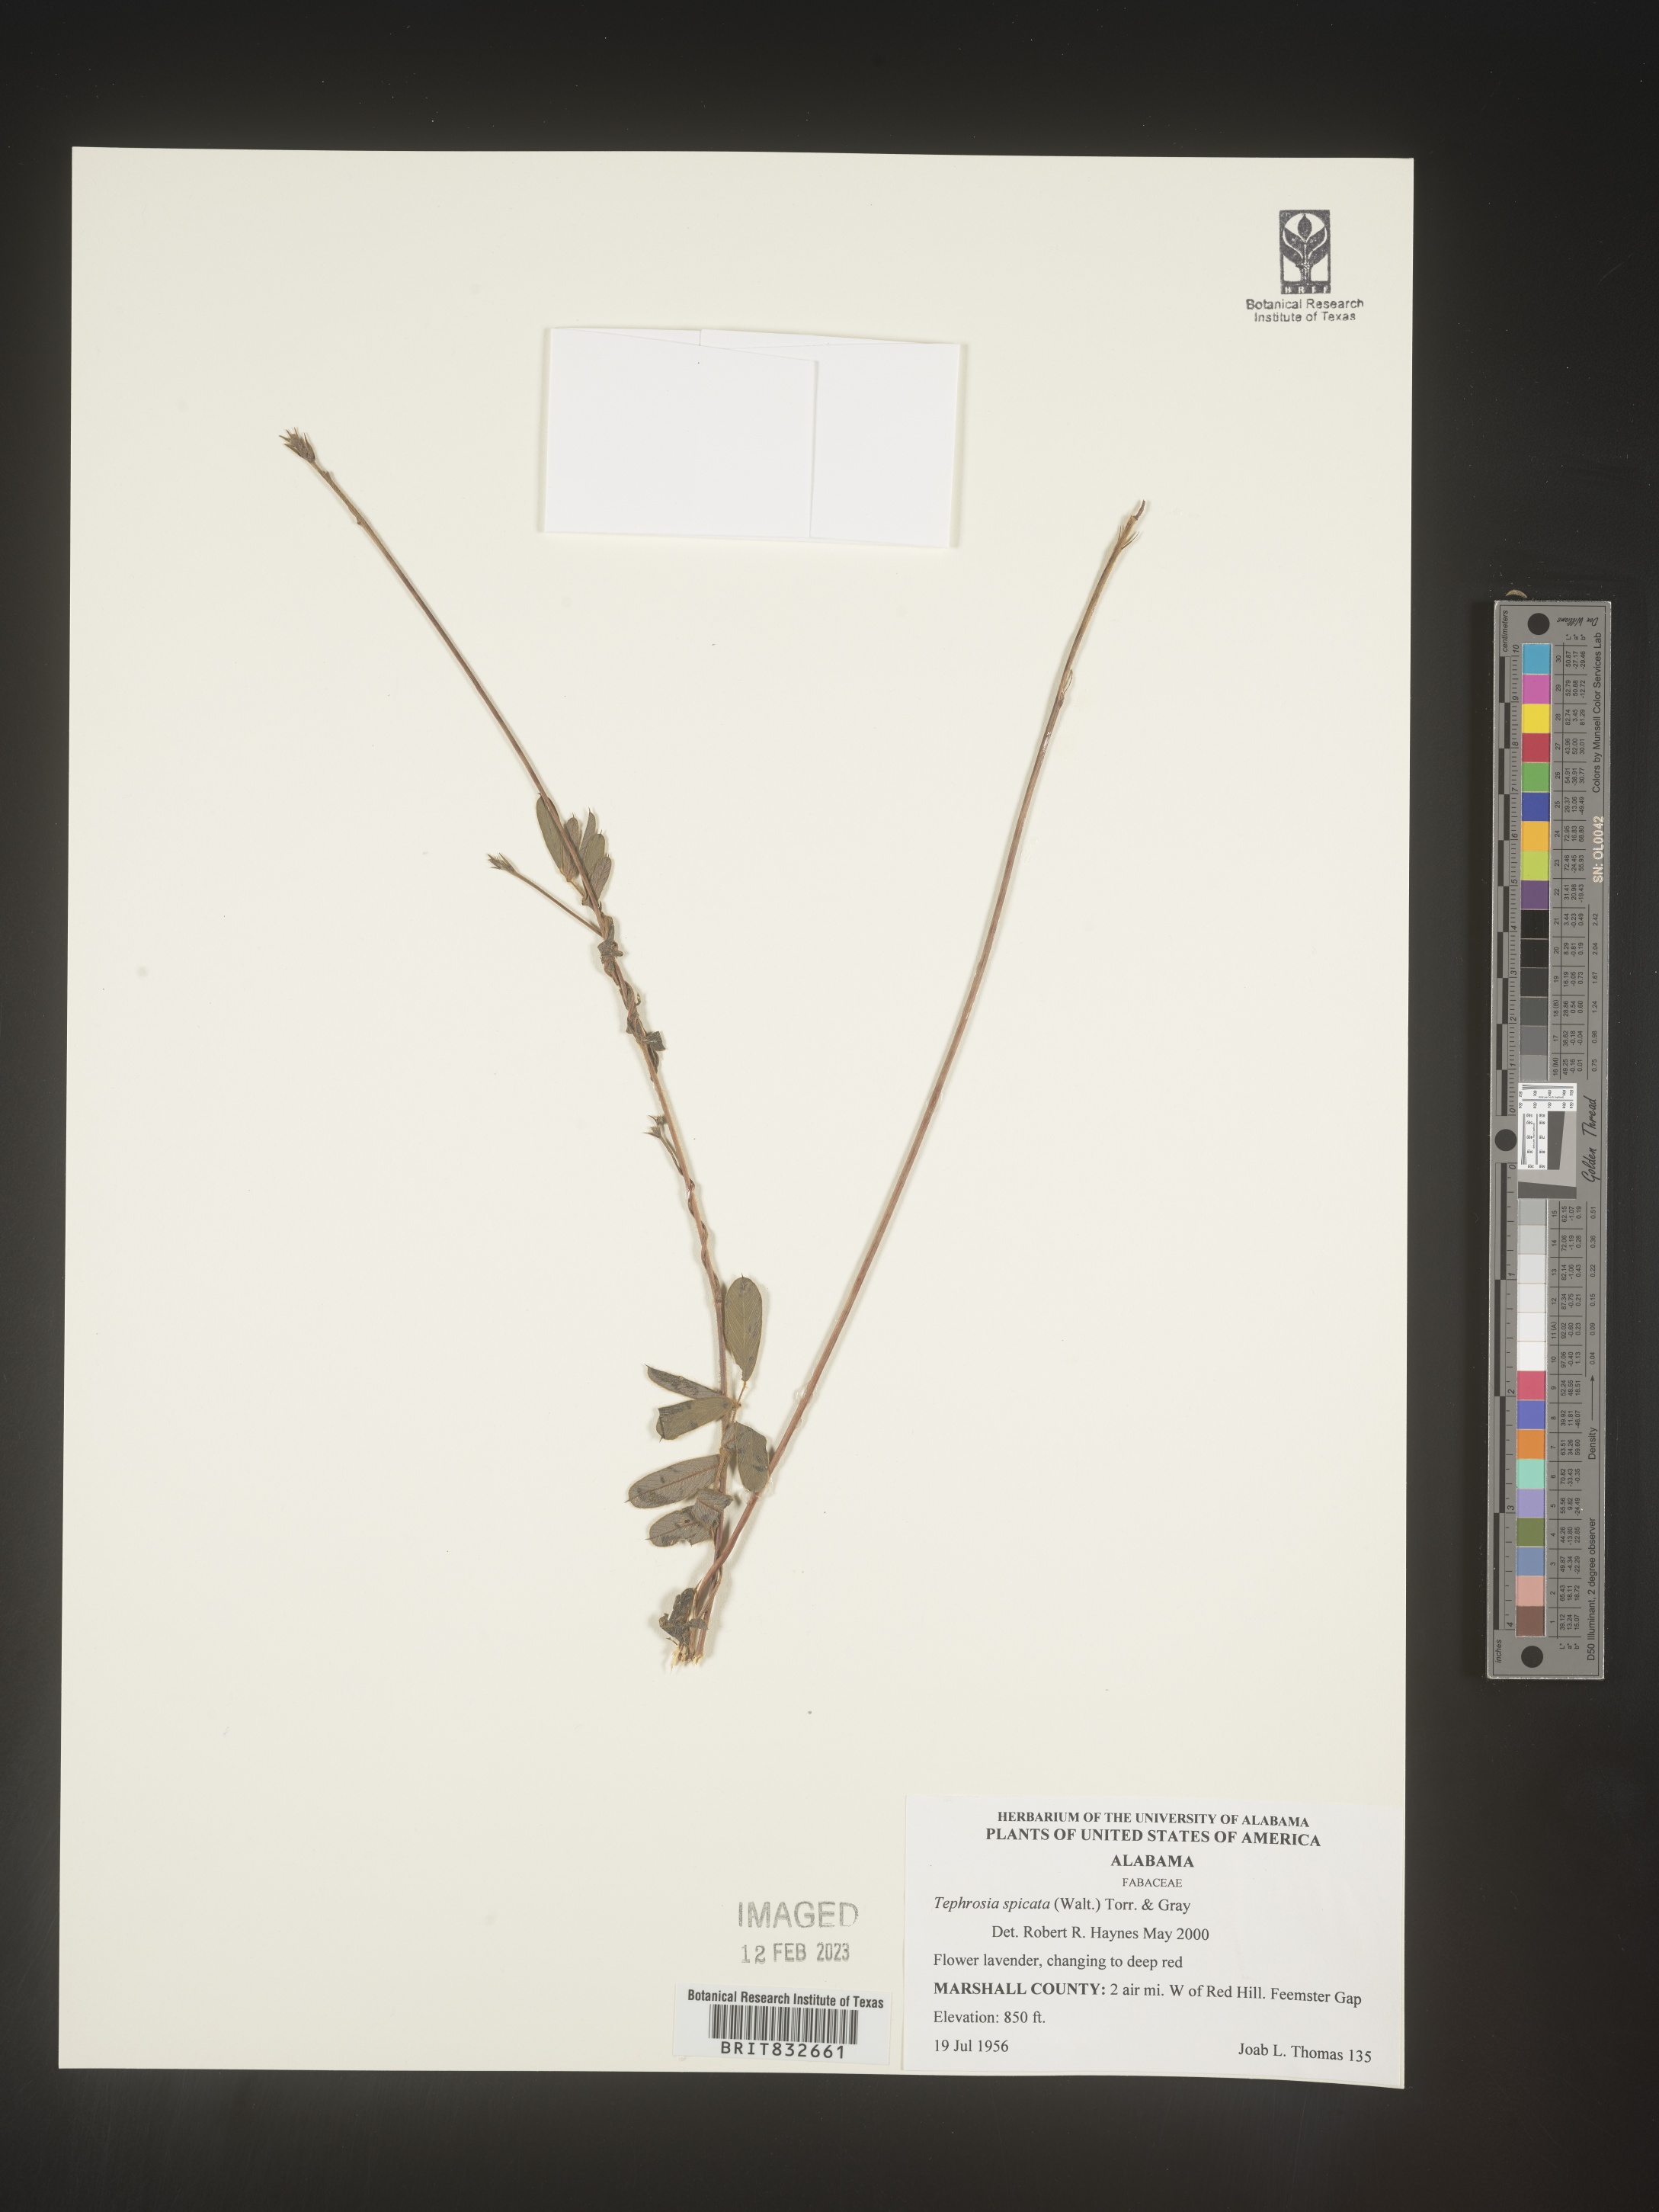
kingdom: Plantae
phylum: Tracheophyta
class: Magnoliopsida
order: Fabales
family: Fabaceae
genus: Tephrosia
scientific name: Tephrosia spicata
